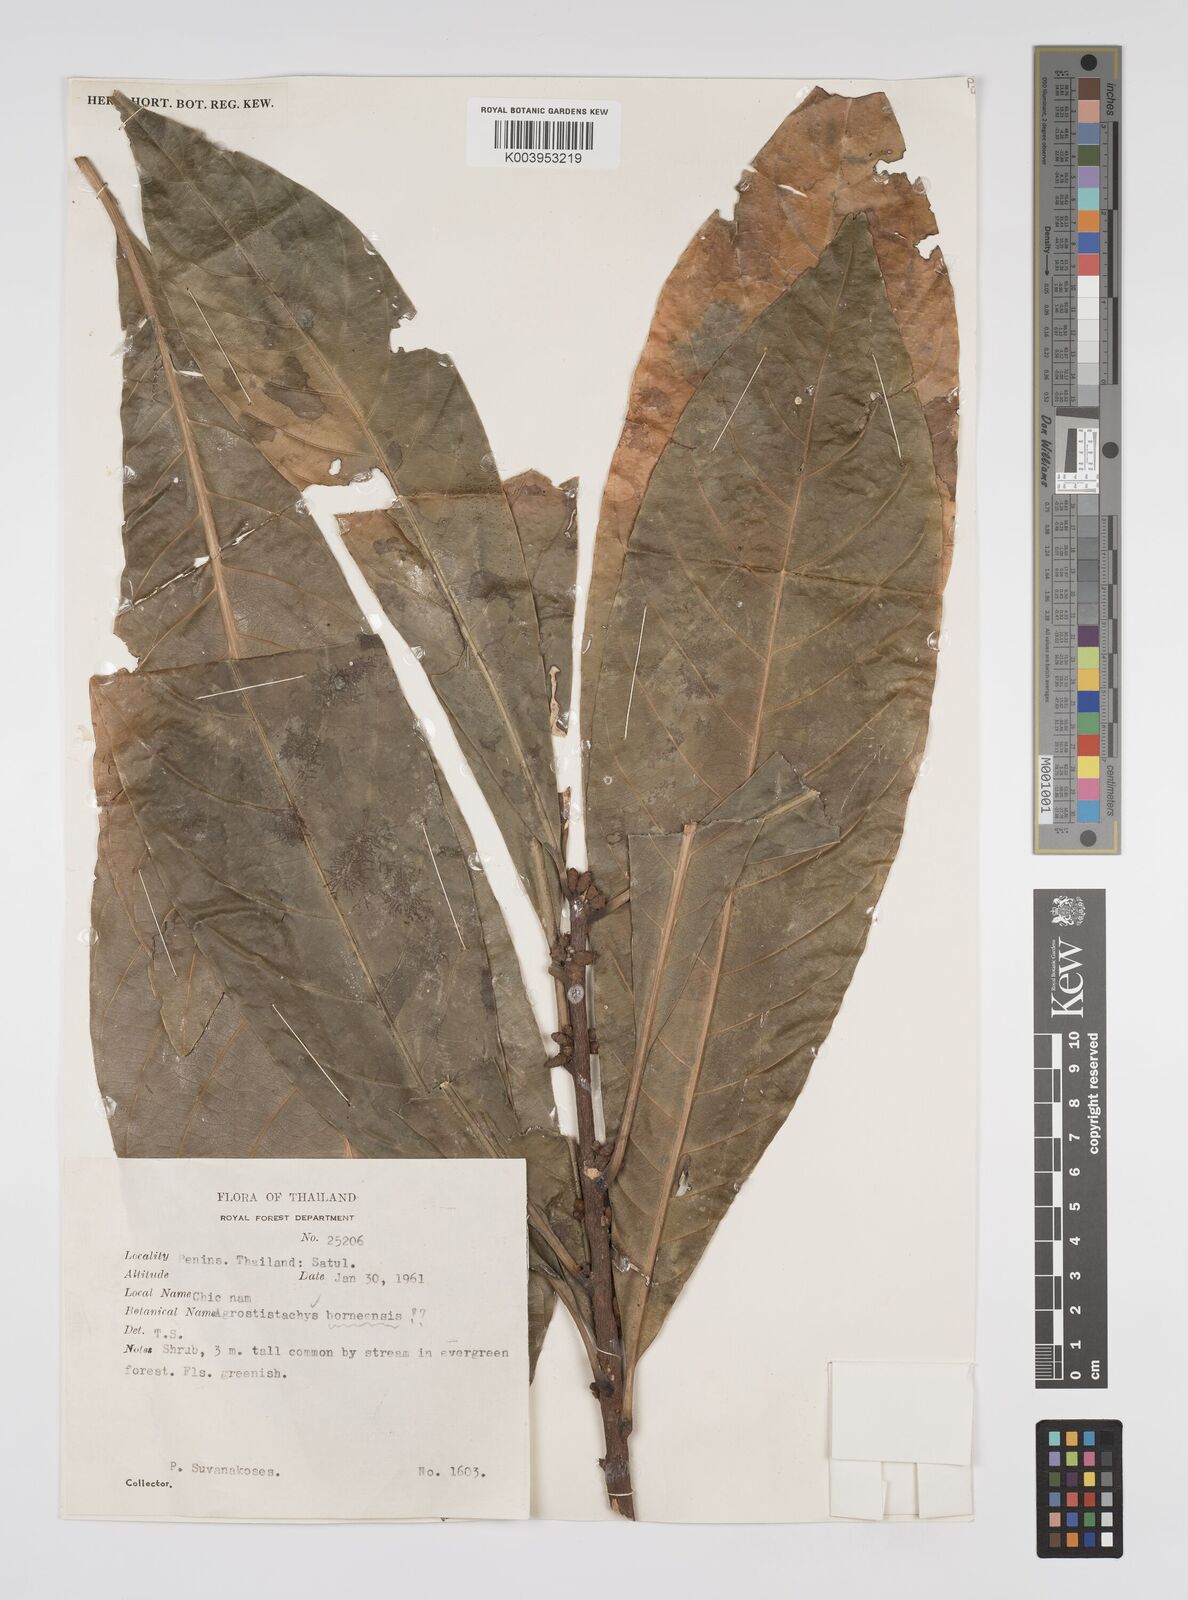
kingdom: Plantae
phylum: Tracheophyta
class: Magnoliopsida
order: Malpighiales
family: Euphorbiaceae
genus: Agrostistachys
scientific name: Agrostistachys gaudichaudii
